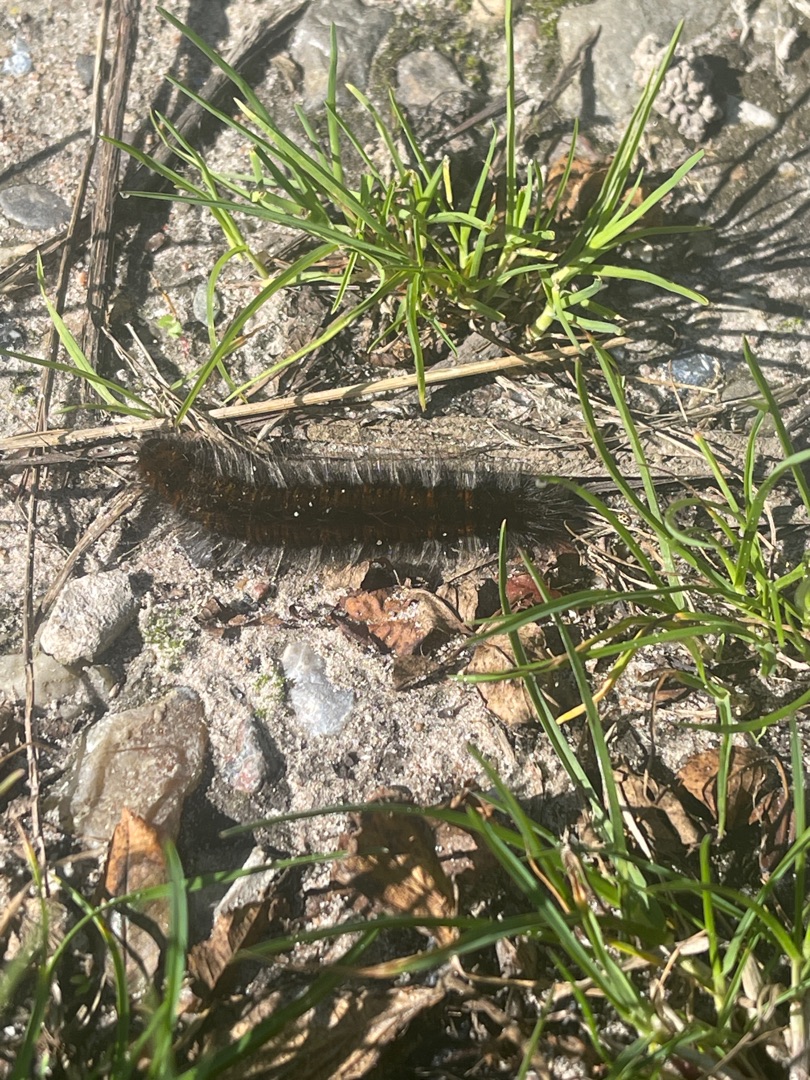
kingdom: Animalia
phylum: Arthropoda
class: Insecta
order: Lepidoptera
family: Lasiocampidae
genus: Macrothylacia
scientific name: Macrothylacia rubi
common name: Brombærspinder
